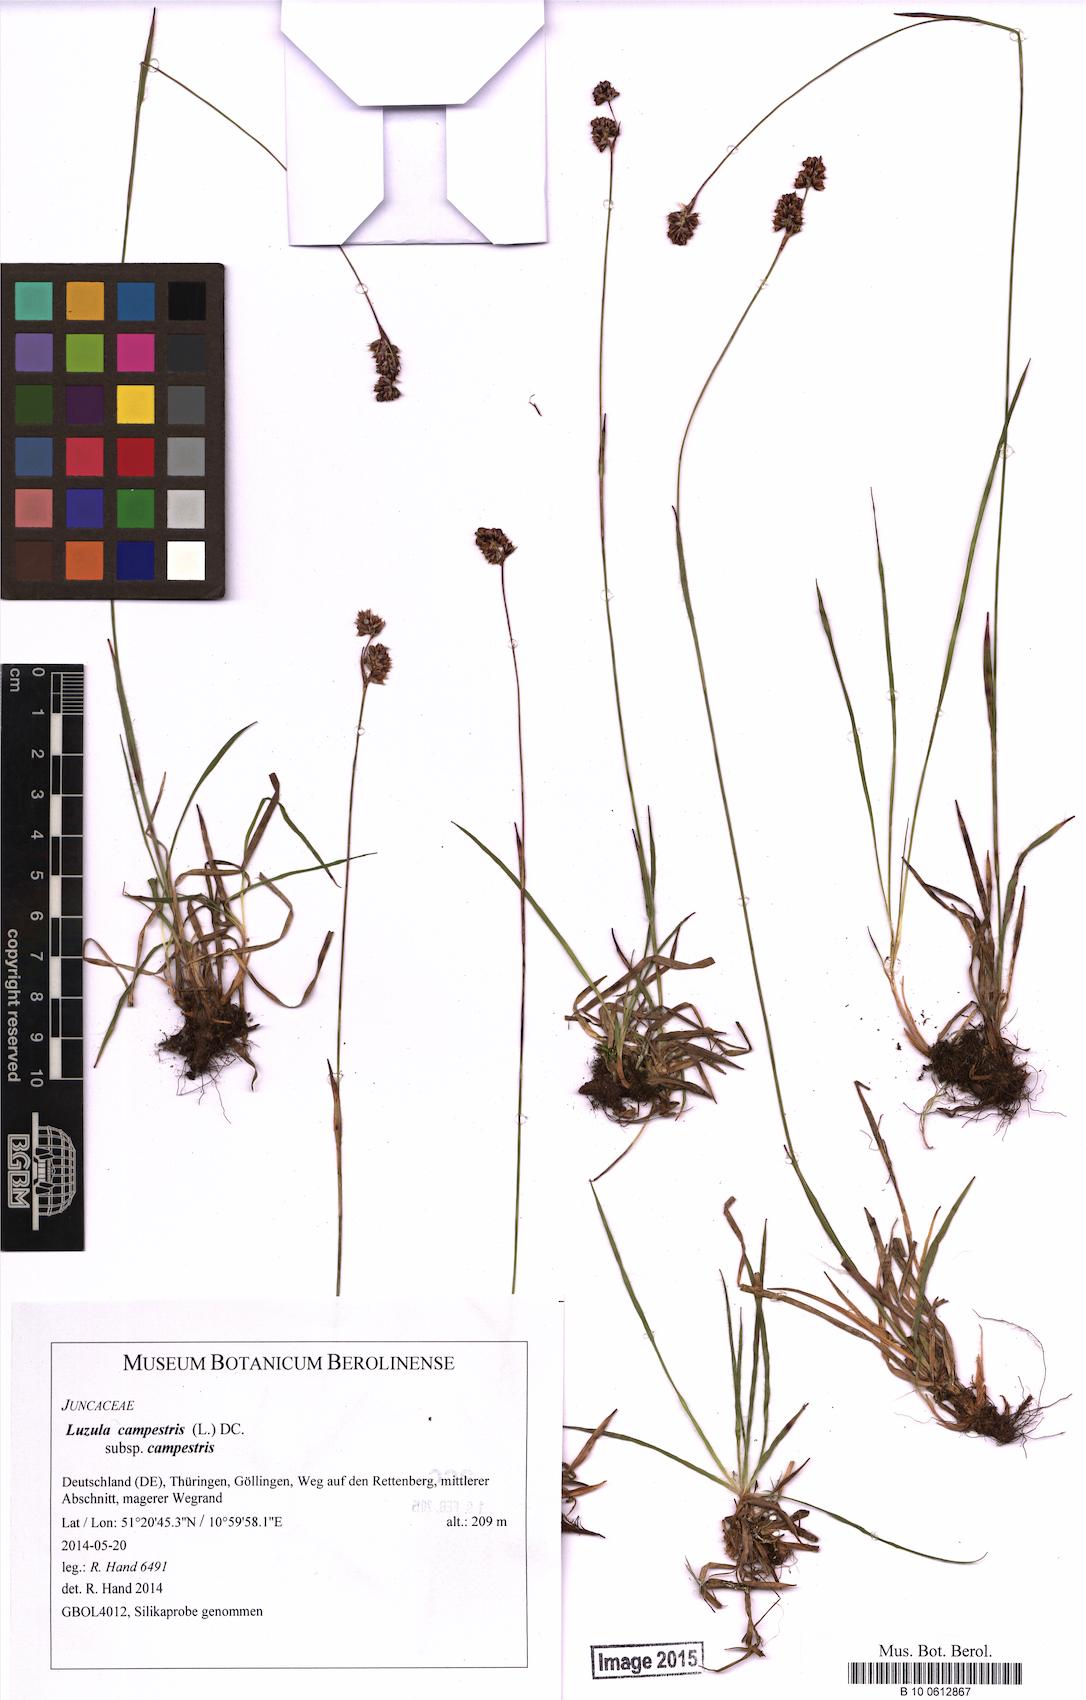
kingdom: Plantae
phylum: Tracheophyta
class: Liliopsida
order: Poales
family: Juncaceae
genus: Luzula
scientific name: Luzula campestris
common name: Field wood-rush
